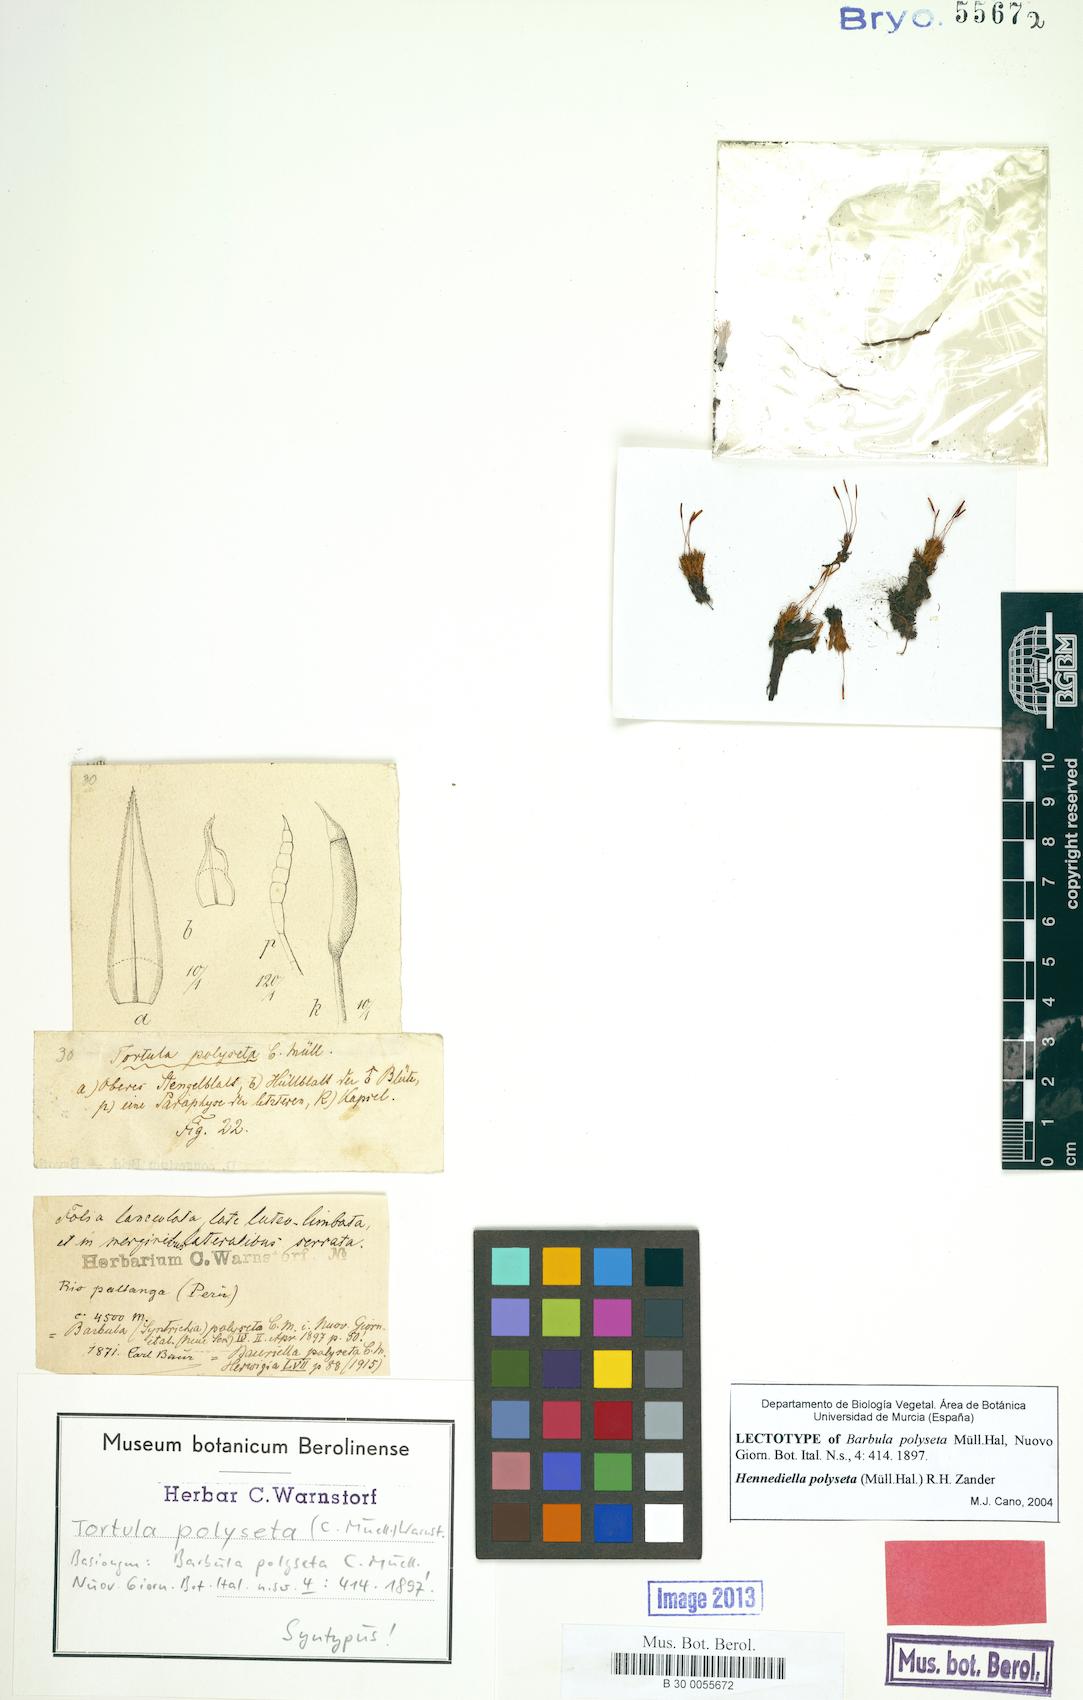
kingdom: Plantae
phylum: Bryophyta
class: Bryopsida
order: Pottiales
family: Pottiaceae
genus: Hennediella
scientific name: Hennediella polyseta
